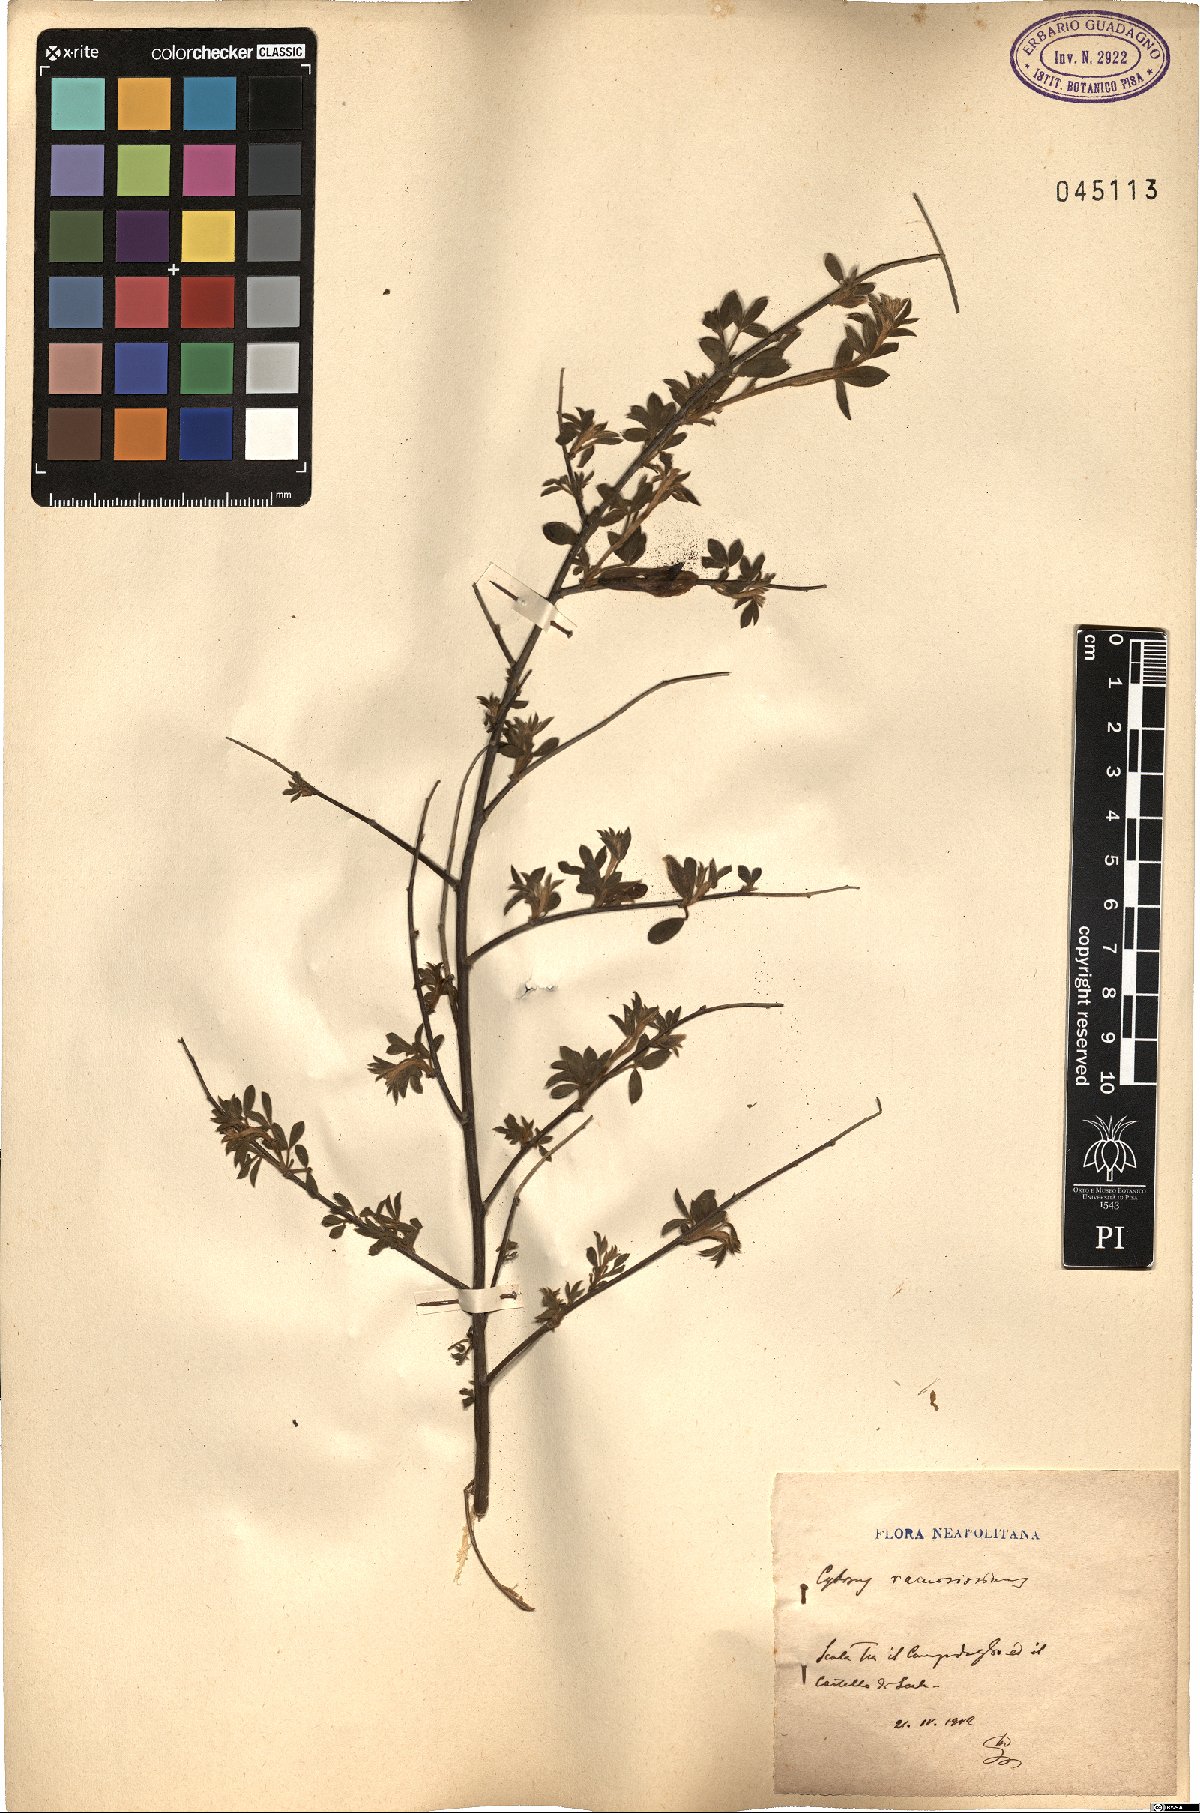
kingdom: Plantae
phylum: Tracheophyta
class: Magnoliopsida
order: Fabales
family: Fabaceae
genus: Chamaecytisus
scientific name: Chamaecytisus spinescens
